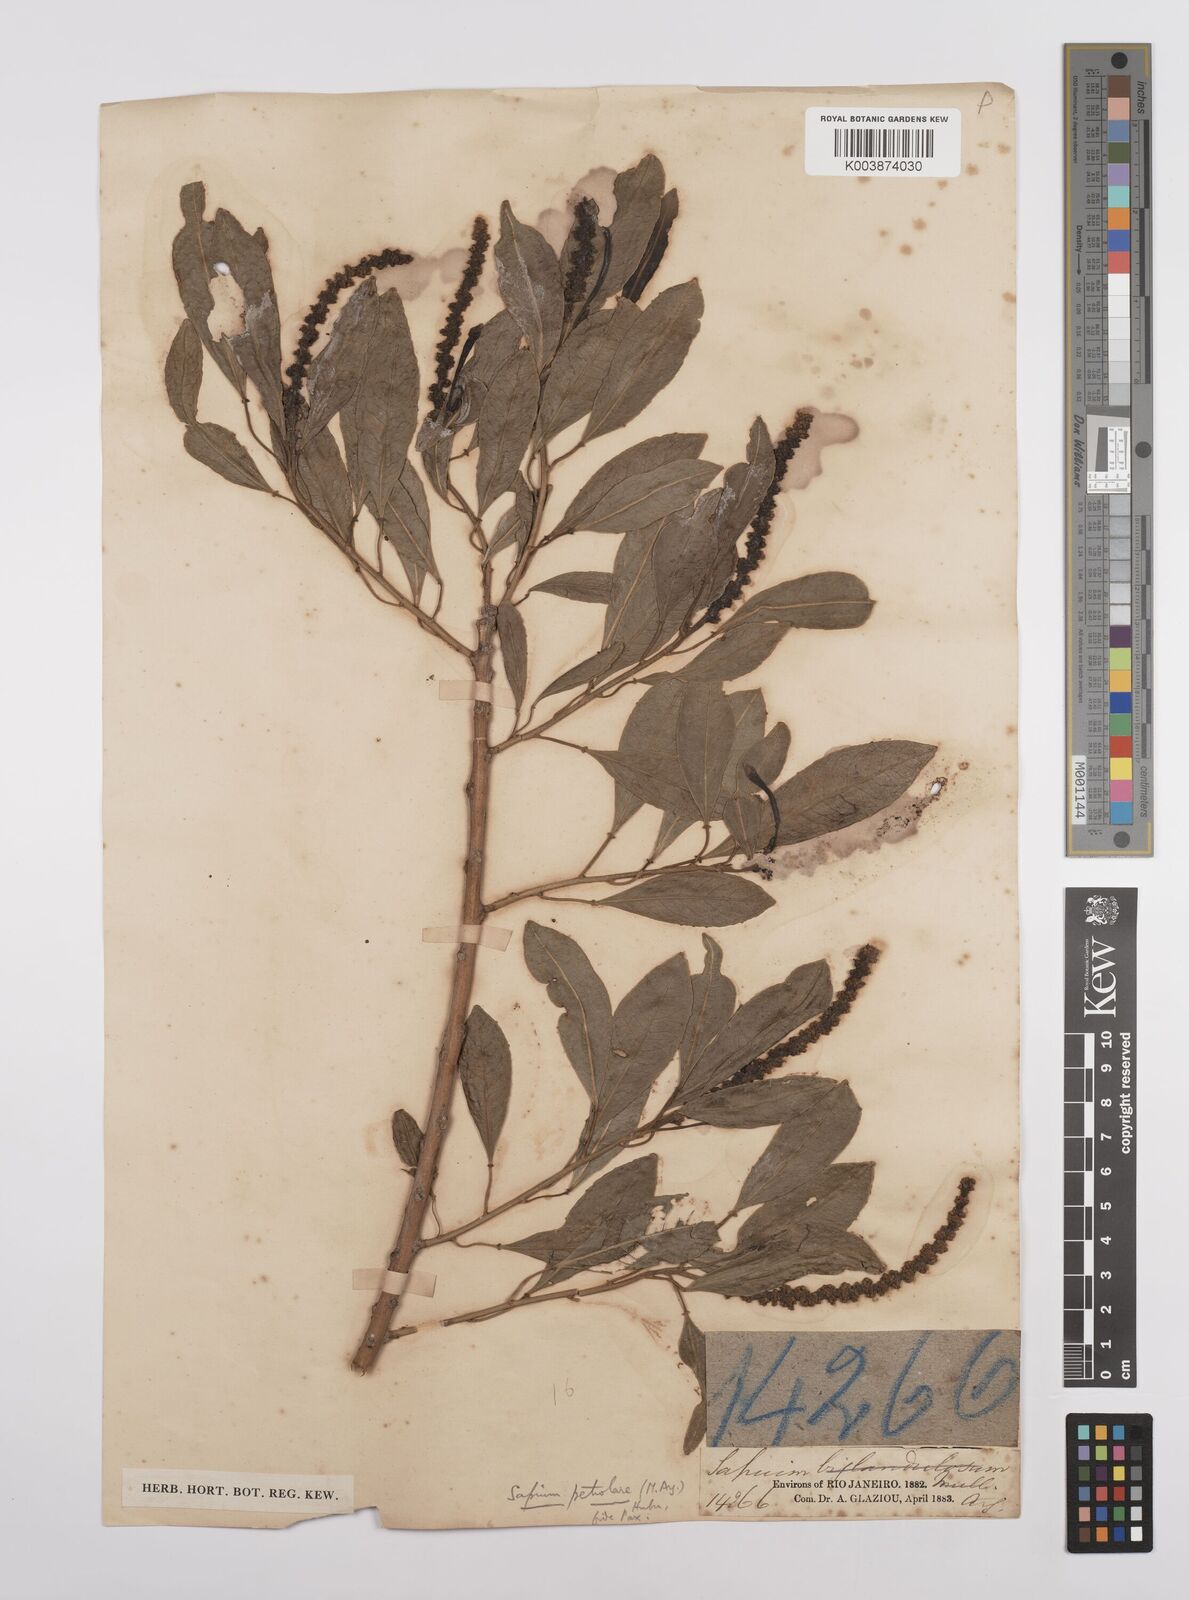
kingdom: Plantae
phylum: Tracheophyta
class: Magnoliopsida
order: Malpighiales
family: Euphorbiaceae
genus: Sapium
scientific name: Sapium glandulosum
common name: Milktree
